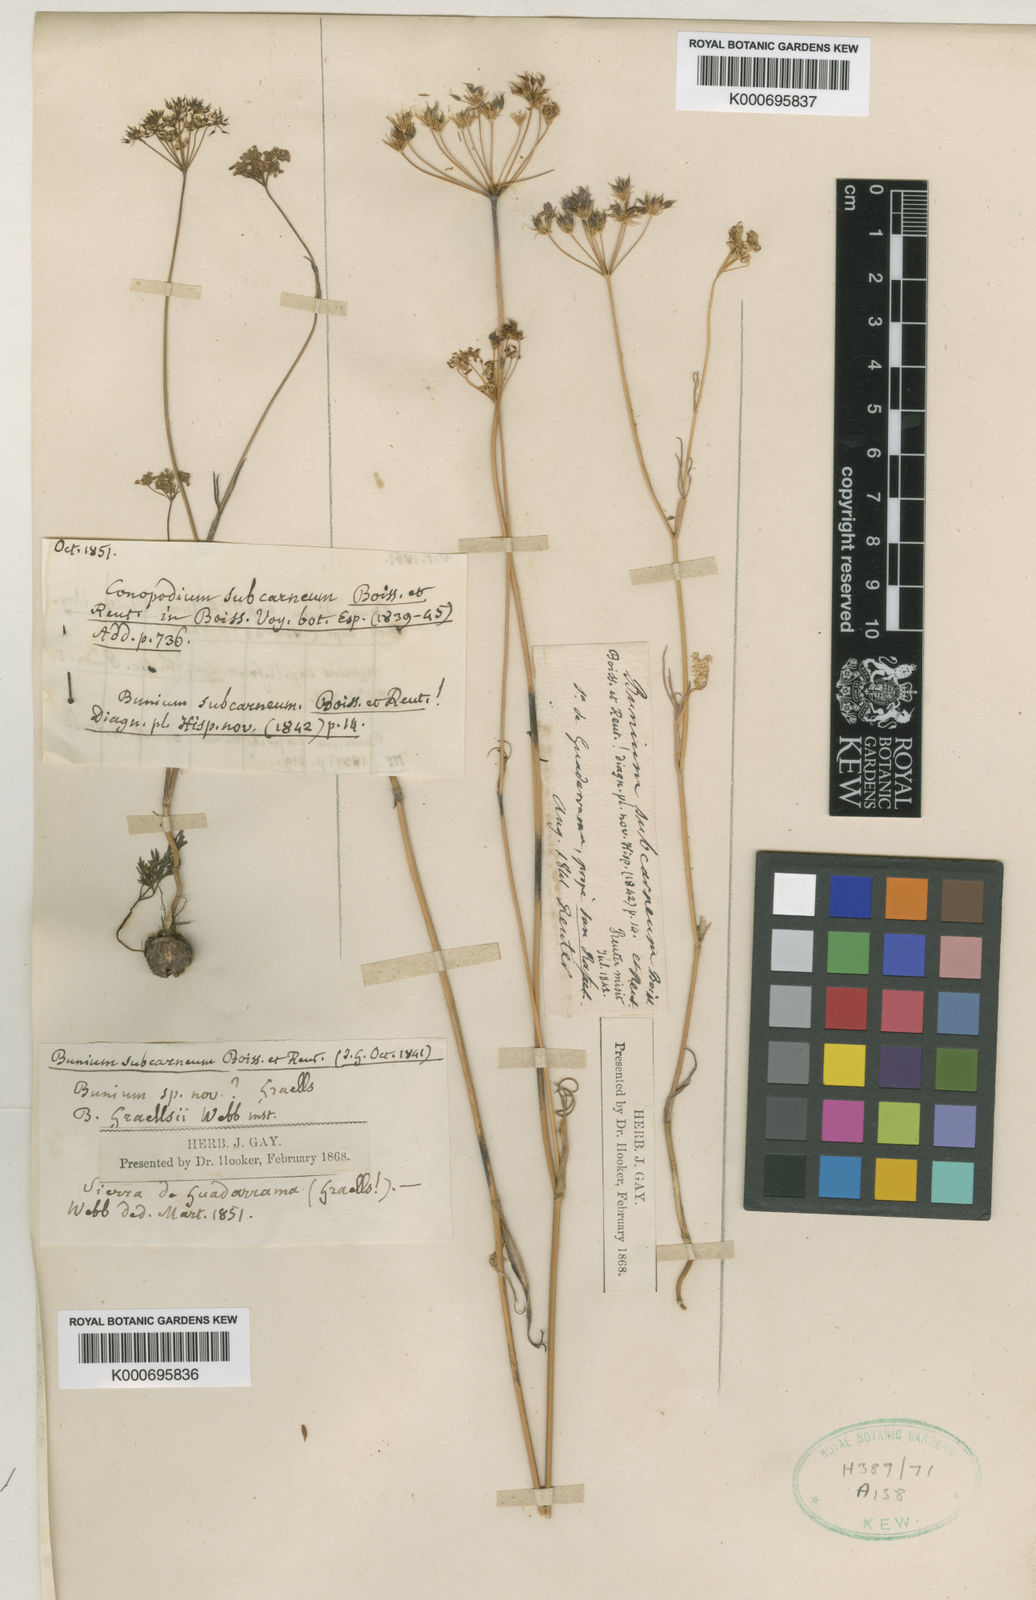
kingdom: Plantae
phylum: Tracheophyta
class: Magnoliopsida
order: Apiales
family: Apiaceae
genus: Geocaryum
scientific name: Geocaryum capillifolium
